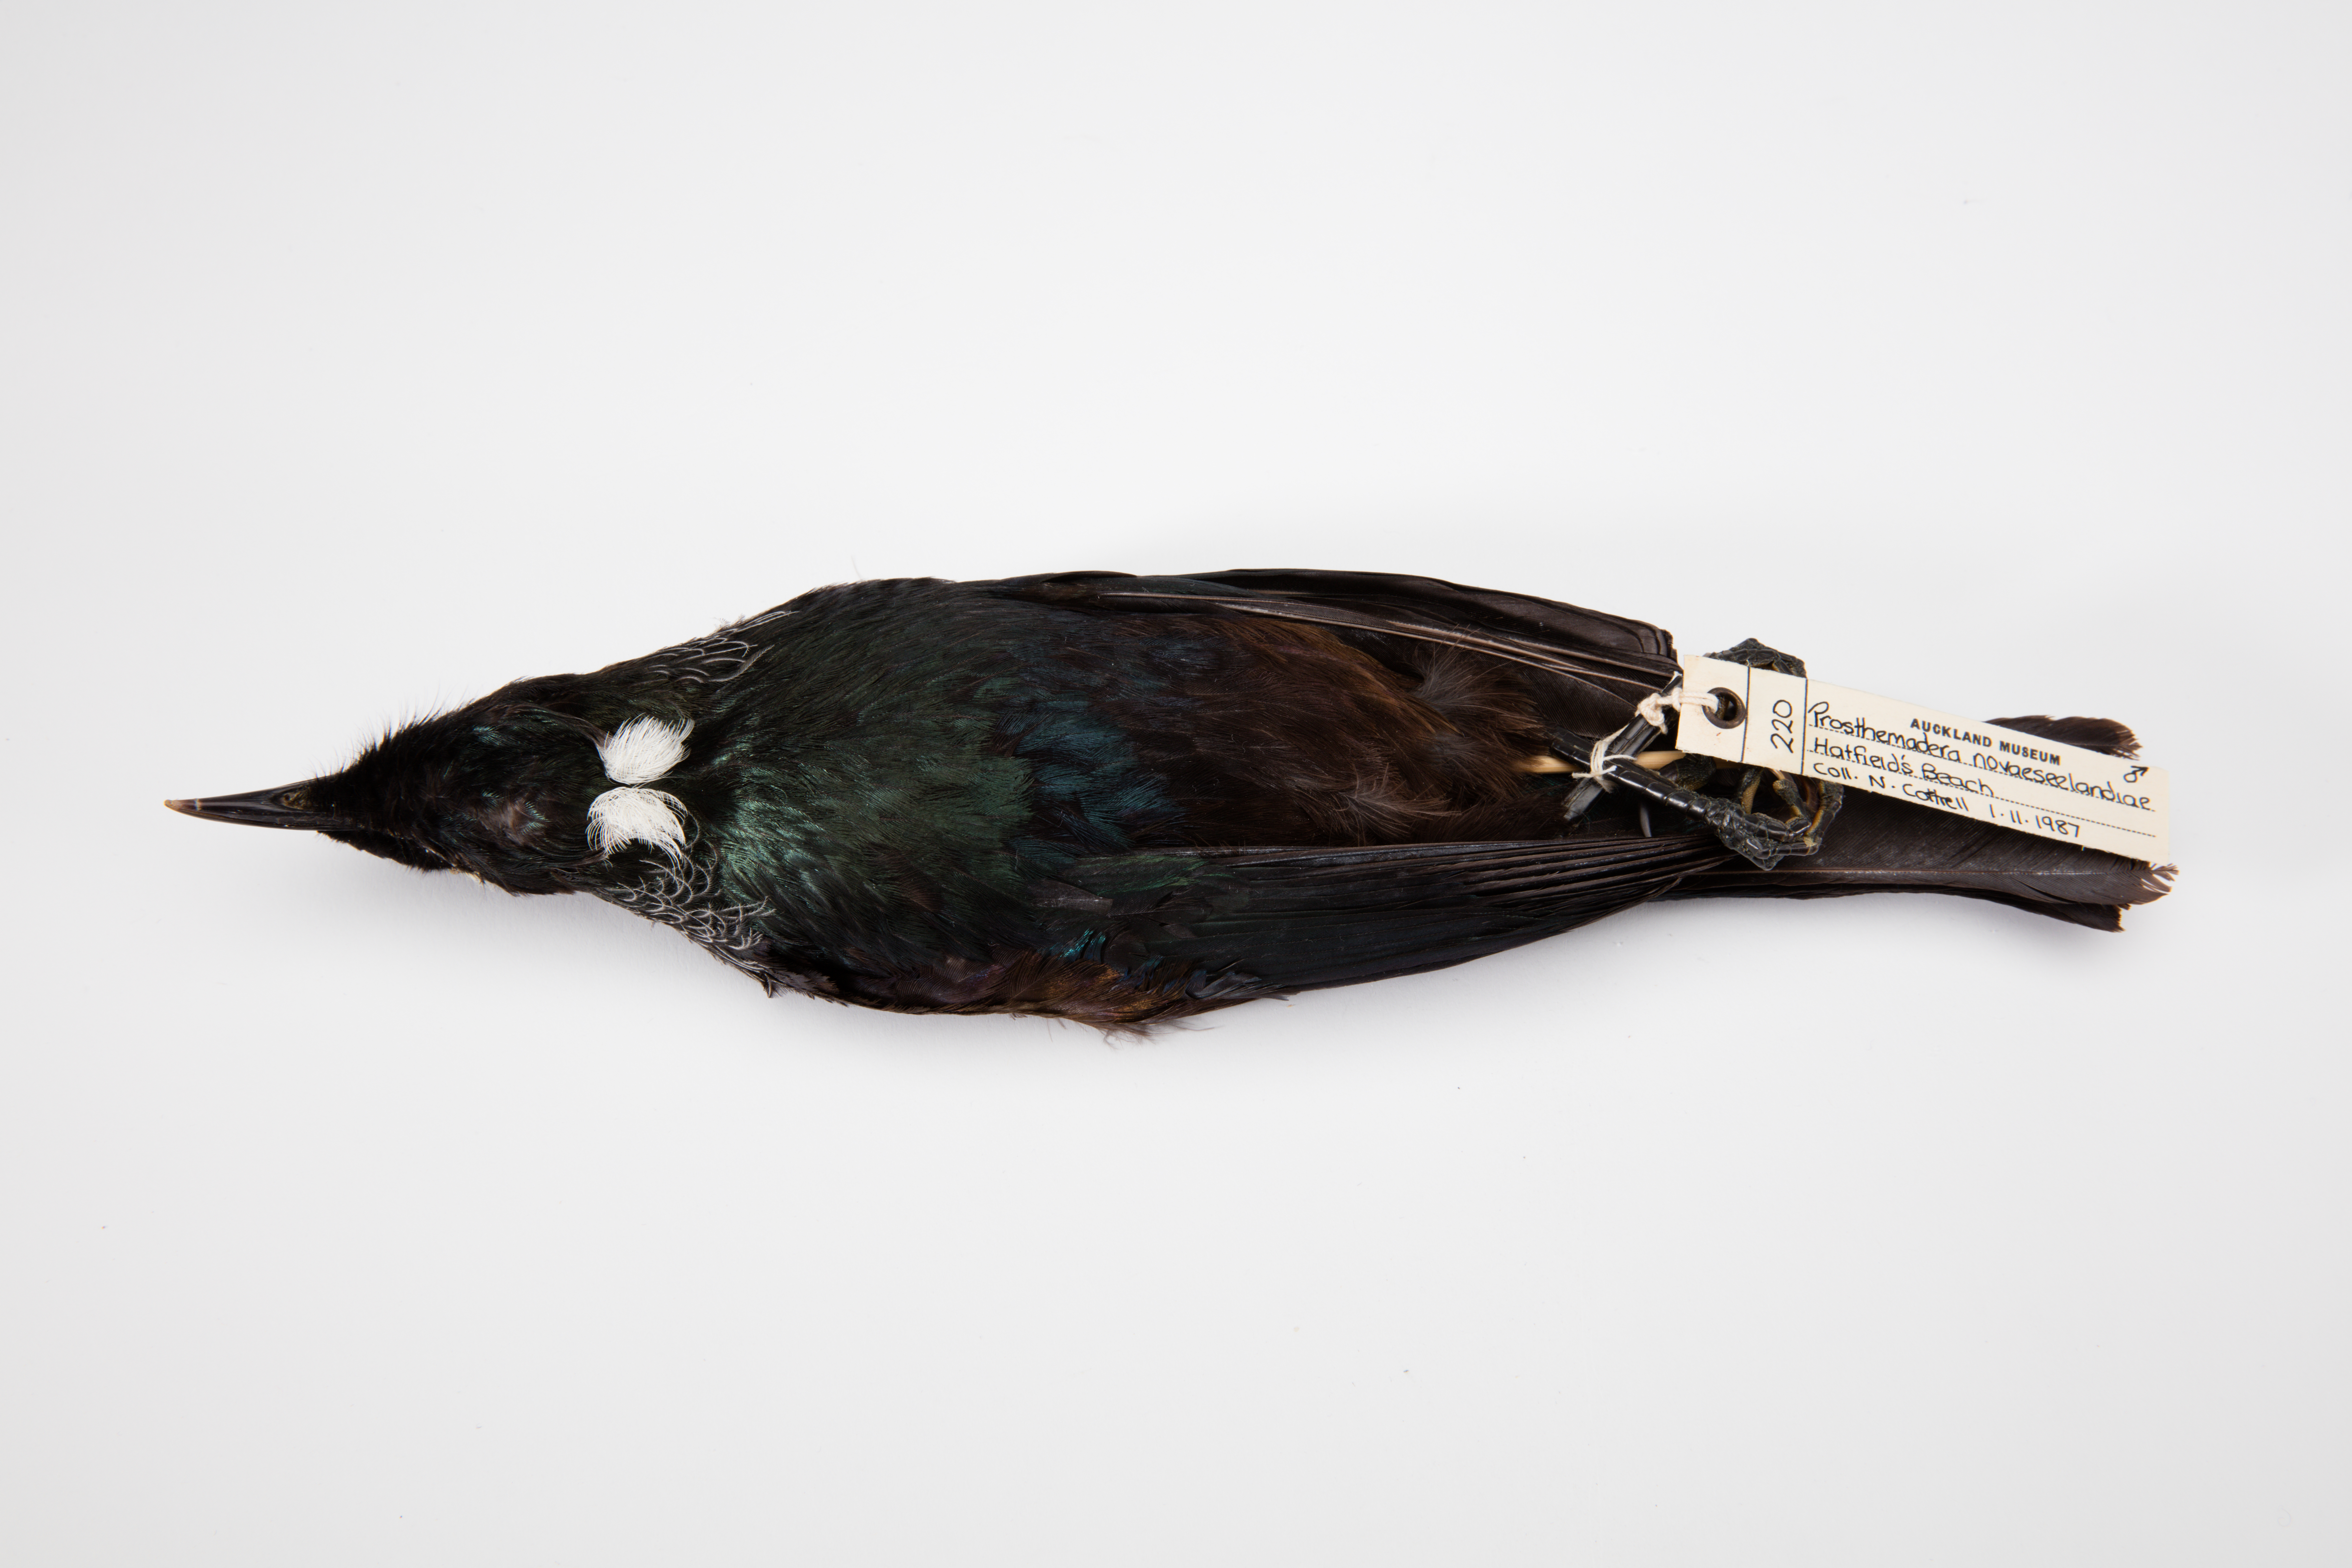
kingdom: Animalia
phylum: Chordata
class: Aves
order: Passeriformes
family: Meliphagidae
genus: Prosthemadera
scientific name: Prosthemadera novaeseelandiae
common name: Tui
